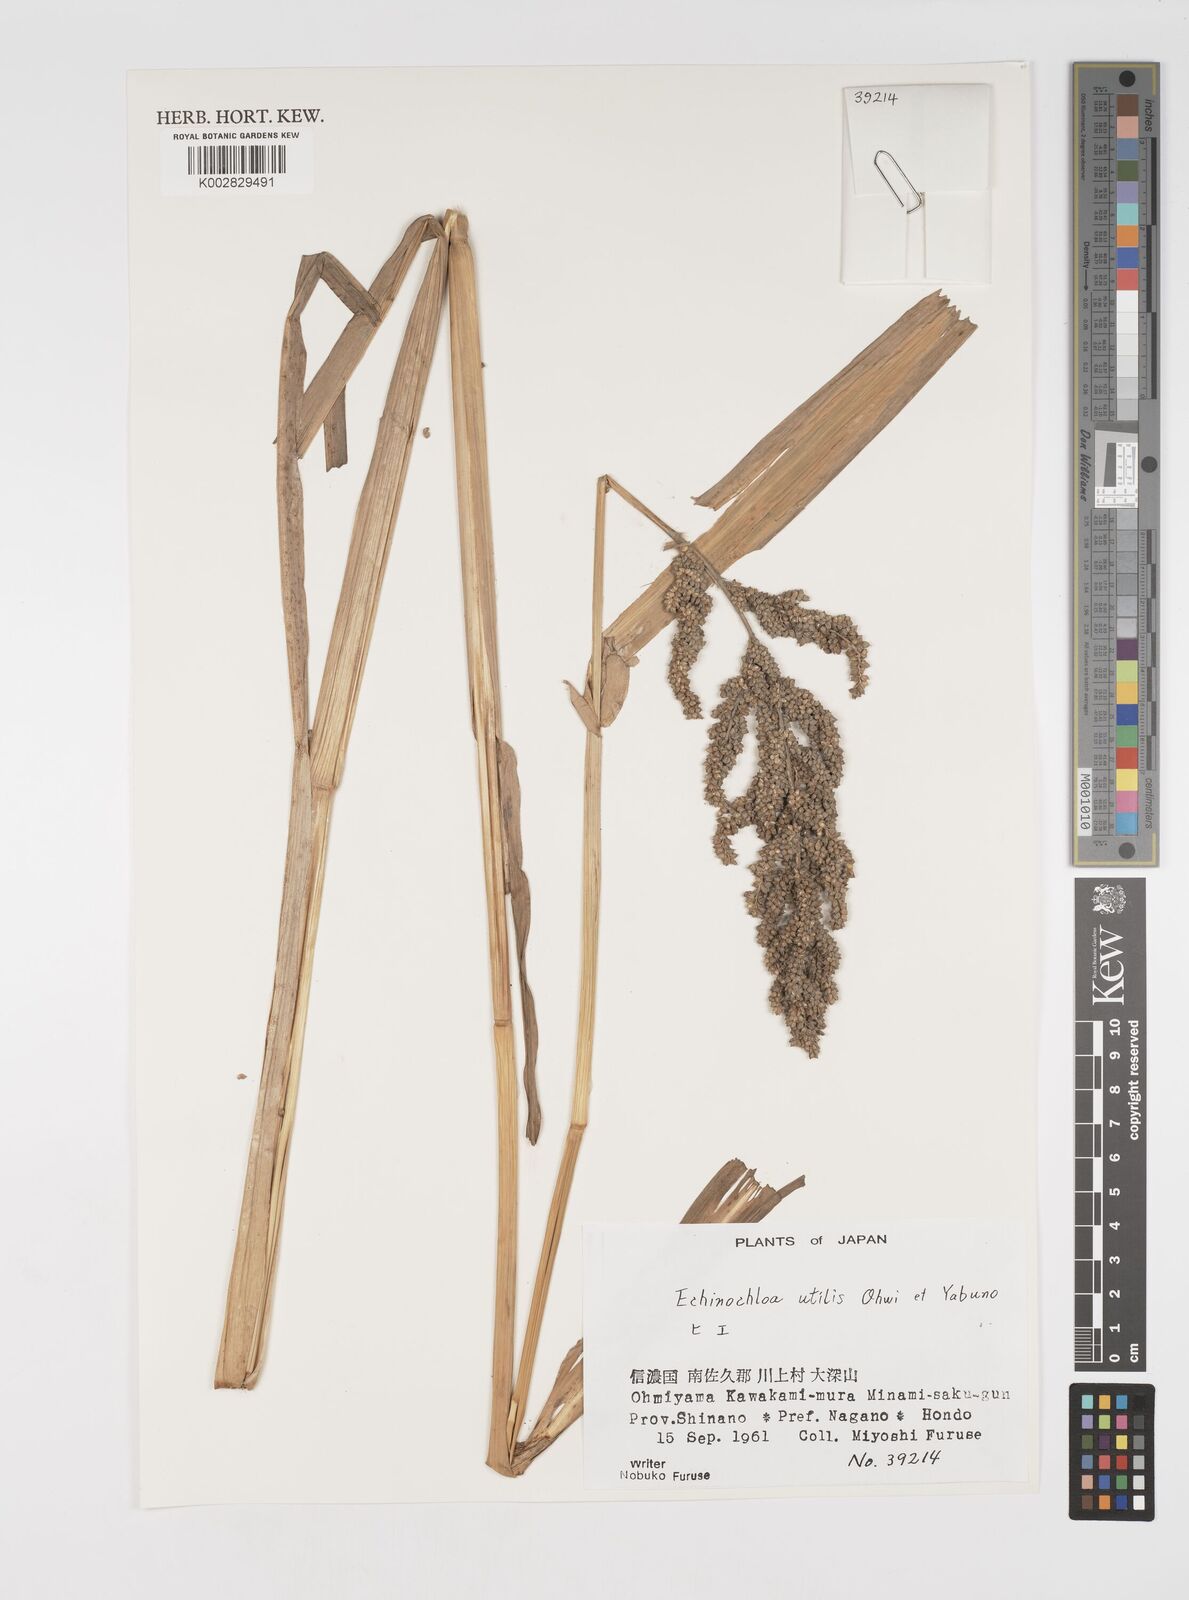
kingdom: Plantae
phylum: Tracheophyta
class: Liliopsida
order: Poales
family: Poaceae
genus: Echinochloa
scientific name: Echinochloa crus-galli
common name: Cockspur
